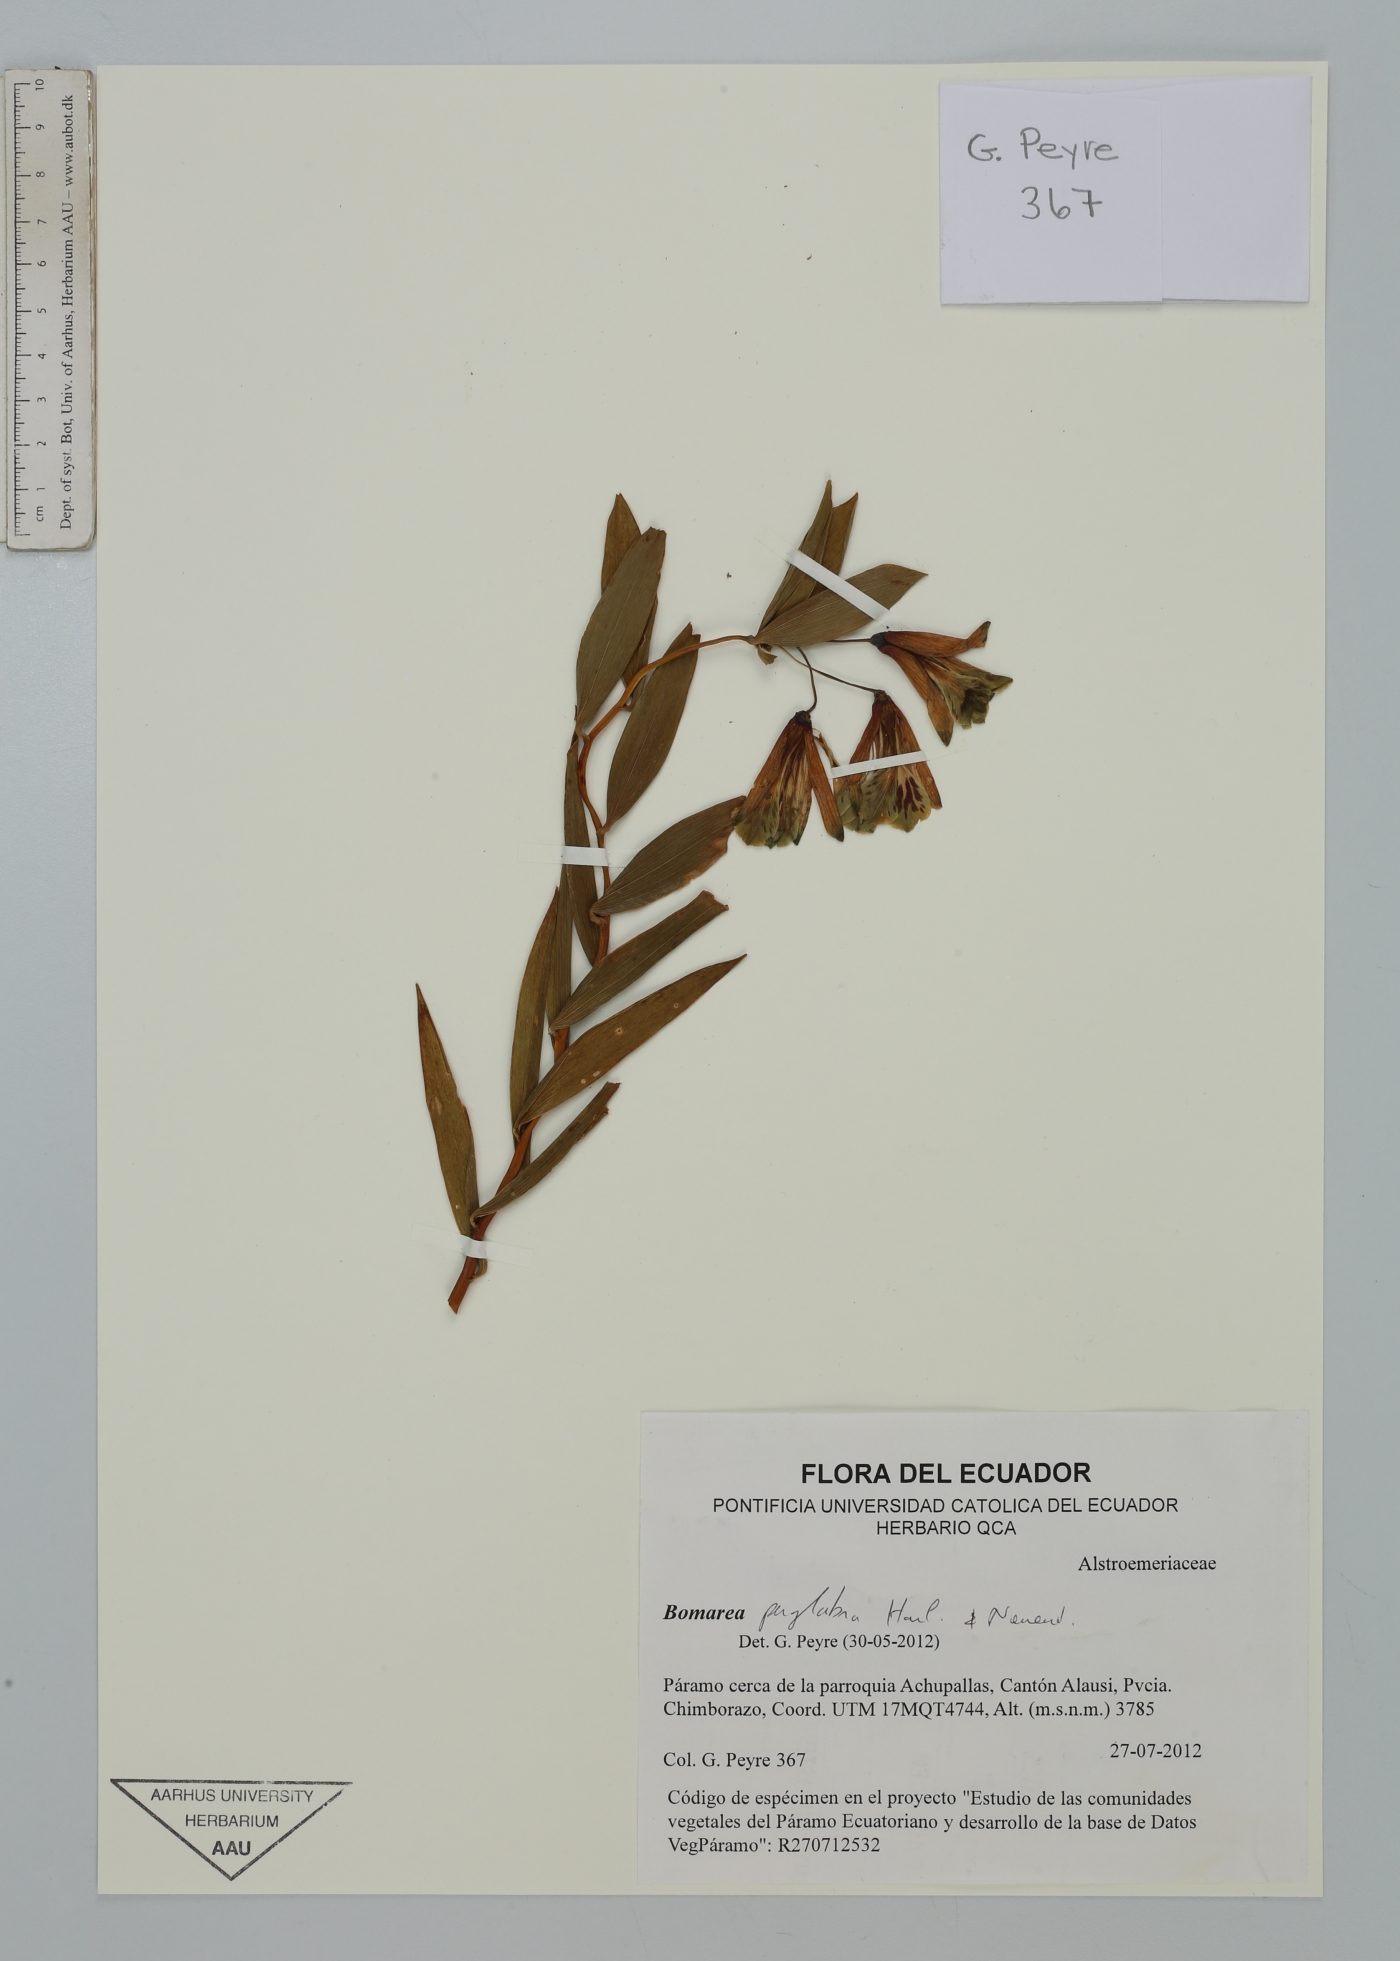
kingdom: Plantae
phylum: Tracheophyta
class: Liliopsida
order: Liliales
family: Alstroemeriaceae
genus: Bomarea
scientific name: Bomarea perglabra
